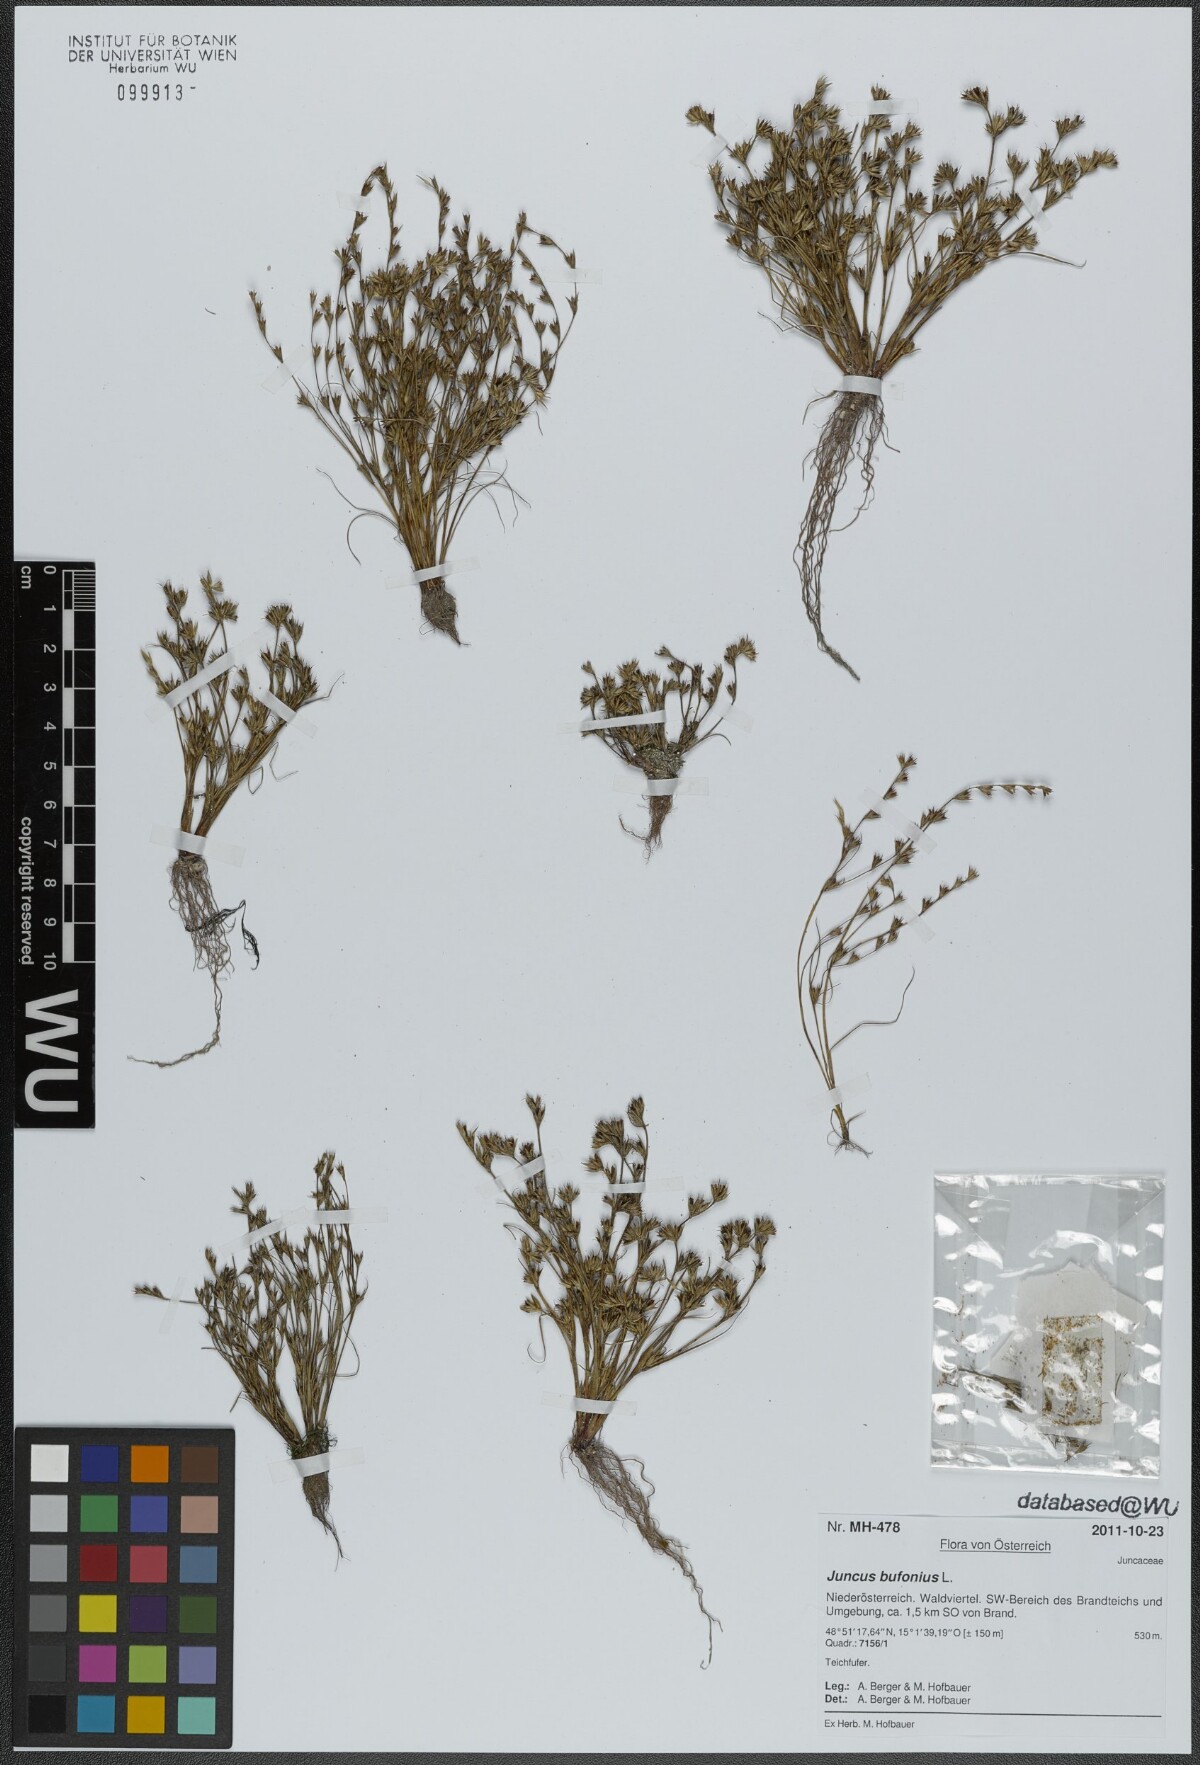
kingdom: Plantae
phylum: Tracheophyta
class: Liliopsida
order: Poales
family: Juncaceae
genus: Juncus
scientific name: Juncus bufonius
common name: Toad rush
